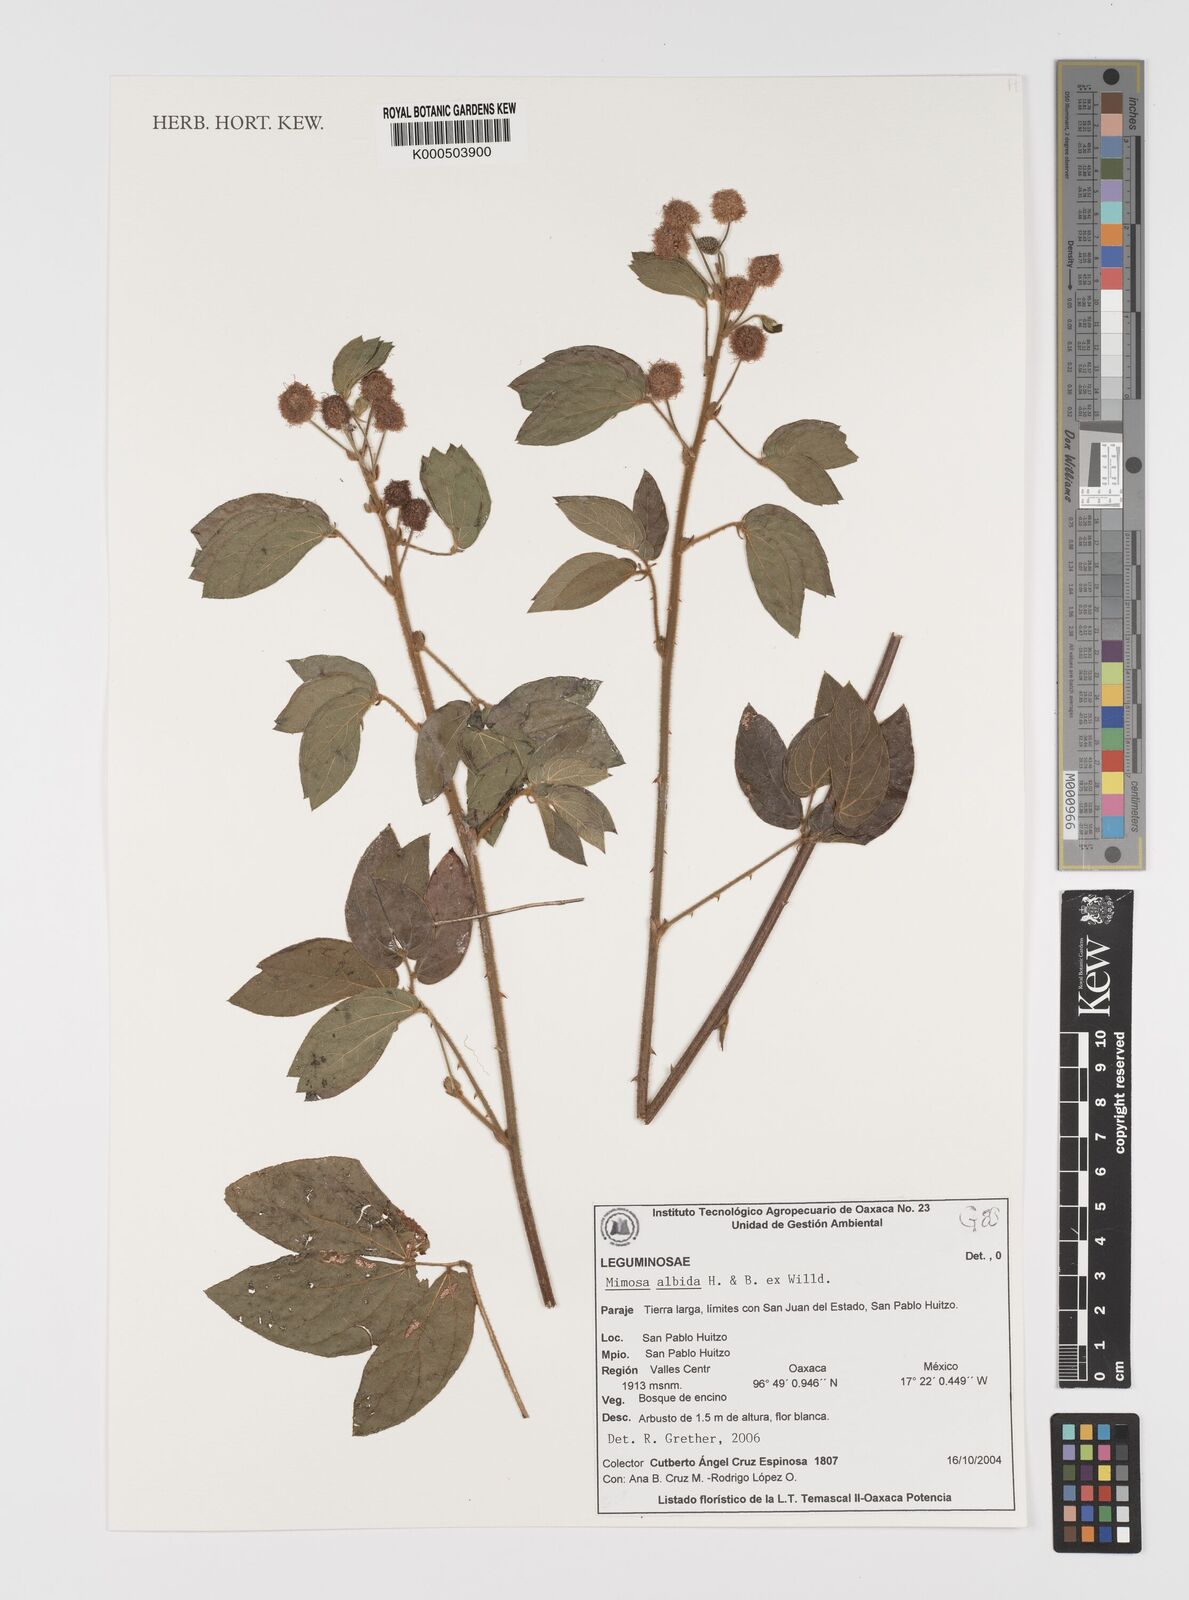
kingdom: Plantae
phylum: Tracheophyta
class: Magnoliopsida
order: Fabales
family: Fabaceae
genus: Mimosa
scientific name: Mimosa albida
